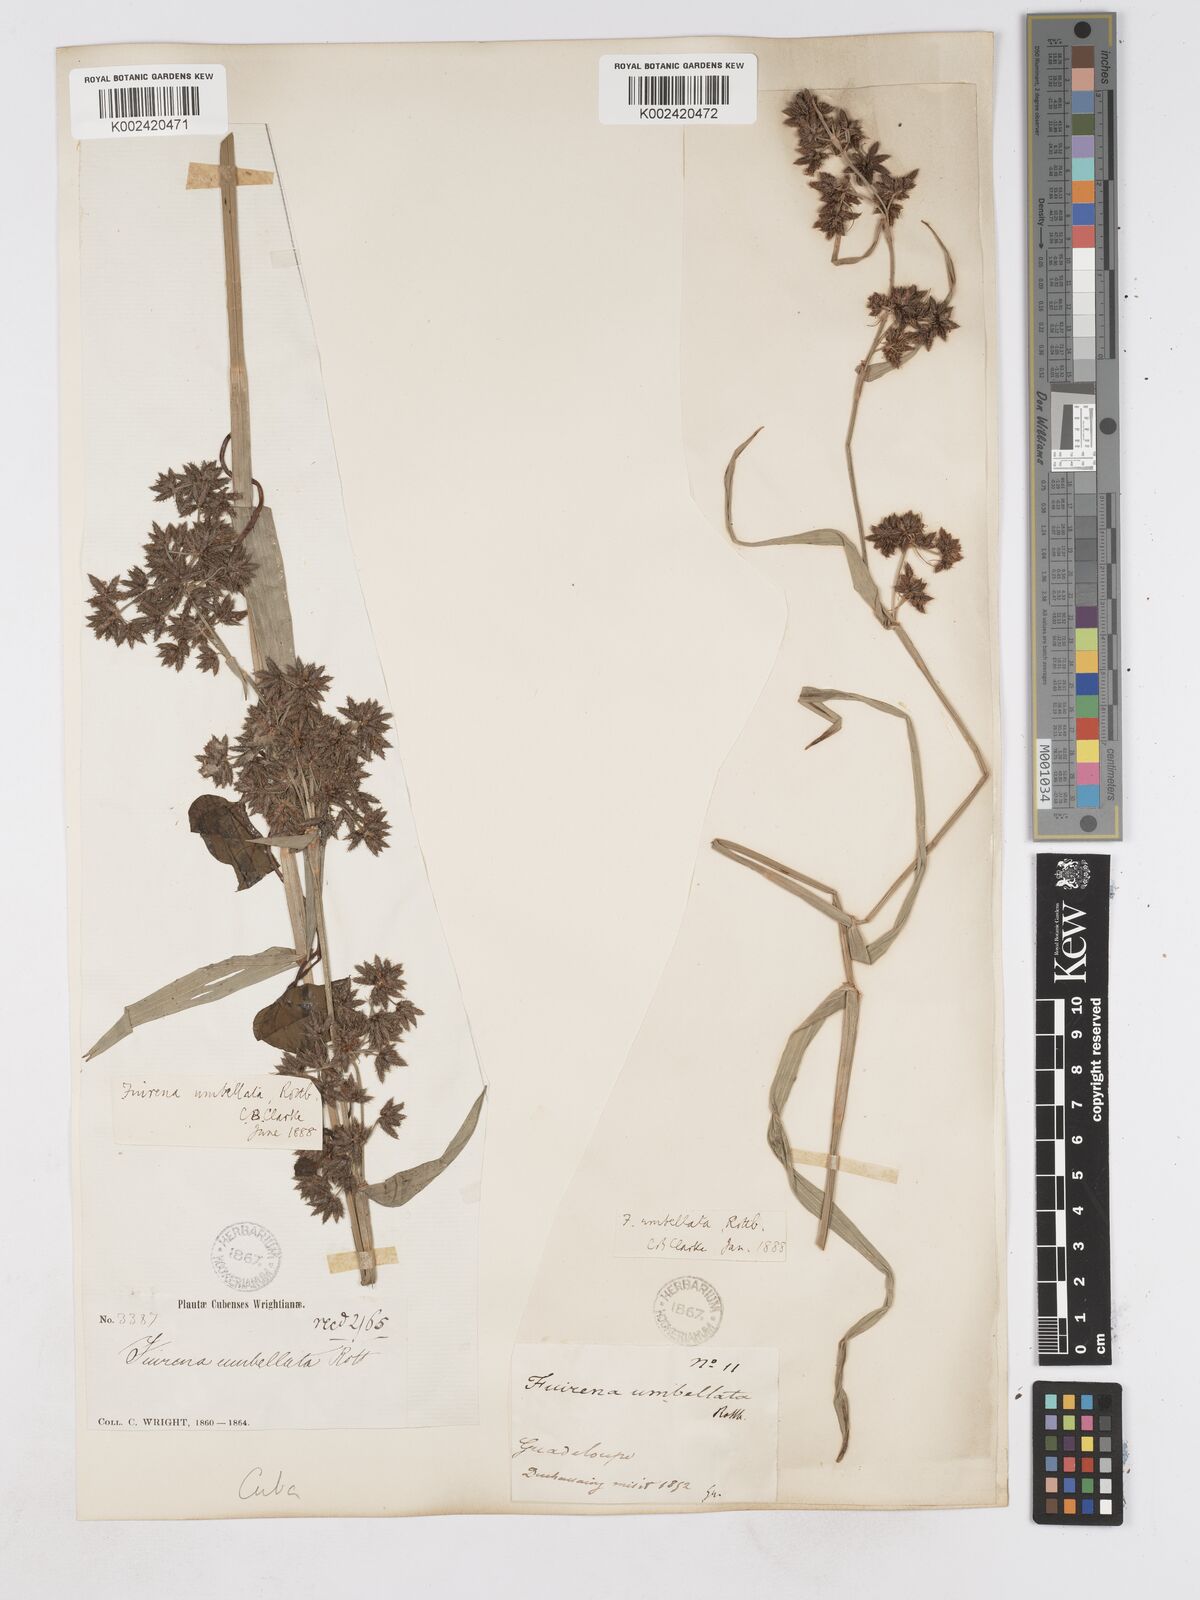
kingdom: Plantae
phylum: Tracheophyta
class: Liliopsida
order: Poales
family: Cyperaceae
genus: Fuirena
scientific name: Fuirena umbellata
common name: Yefen
